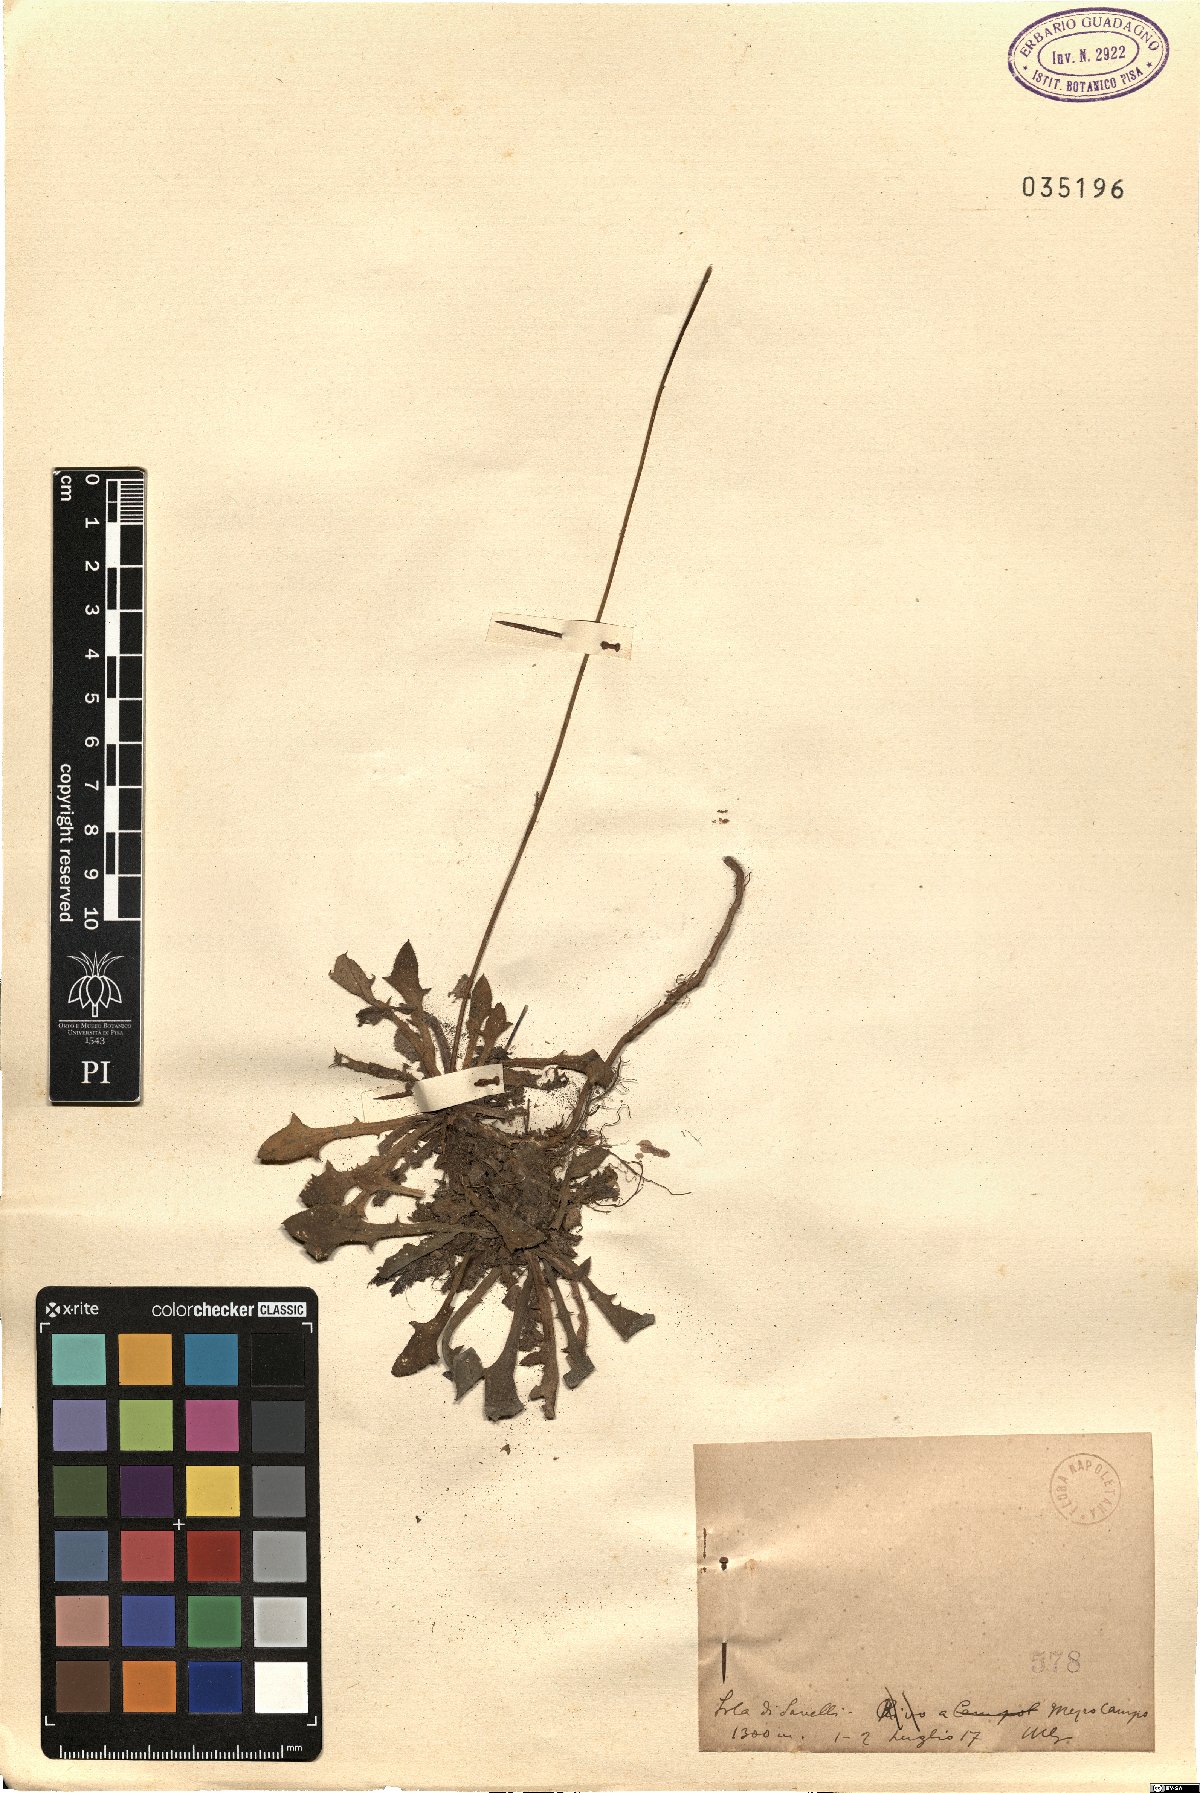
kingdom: Plantae
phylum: Tracheophyta
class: Magnoliopsida
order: Asterales
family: Asteraceae
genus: Thrincia
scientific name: Thrincia
